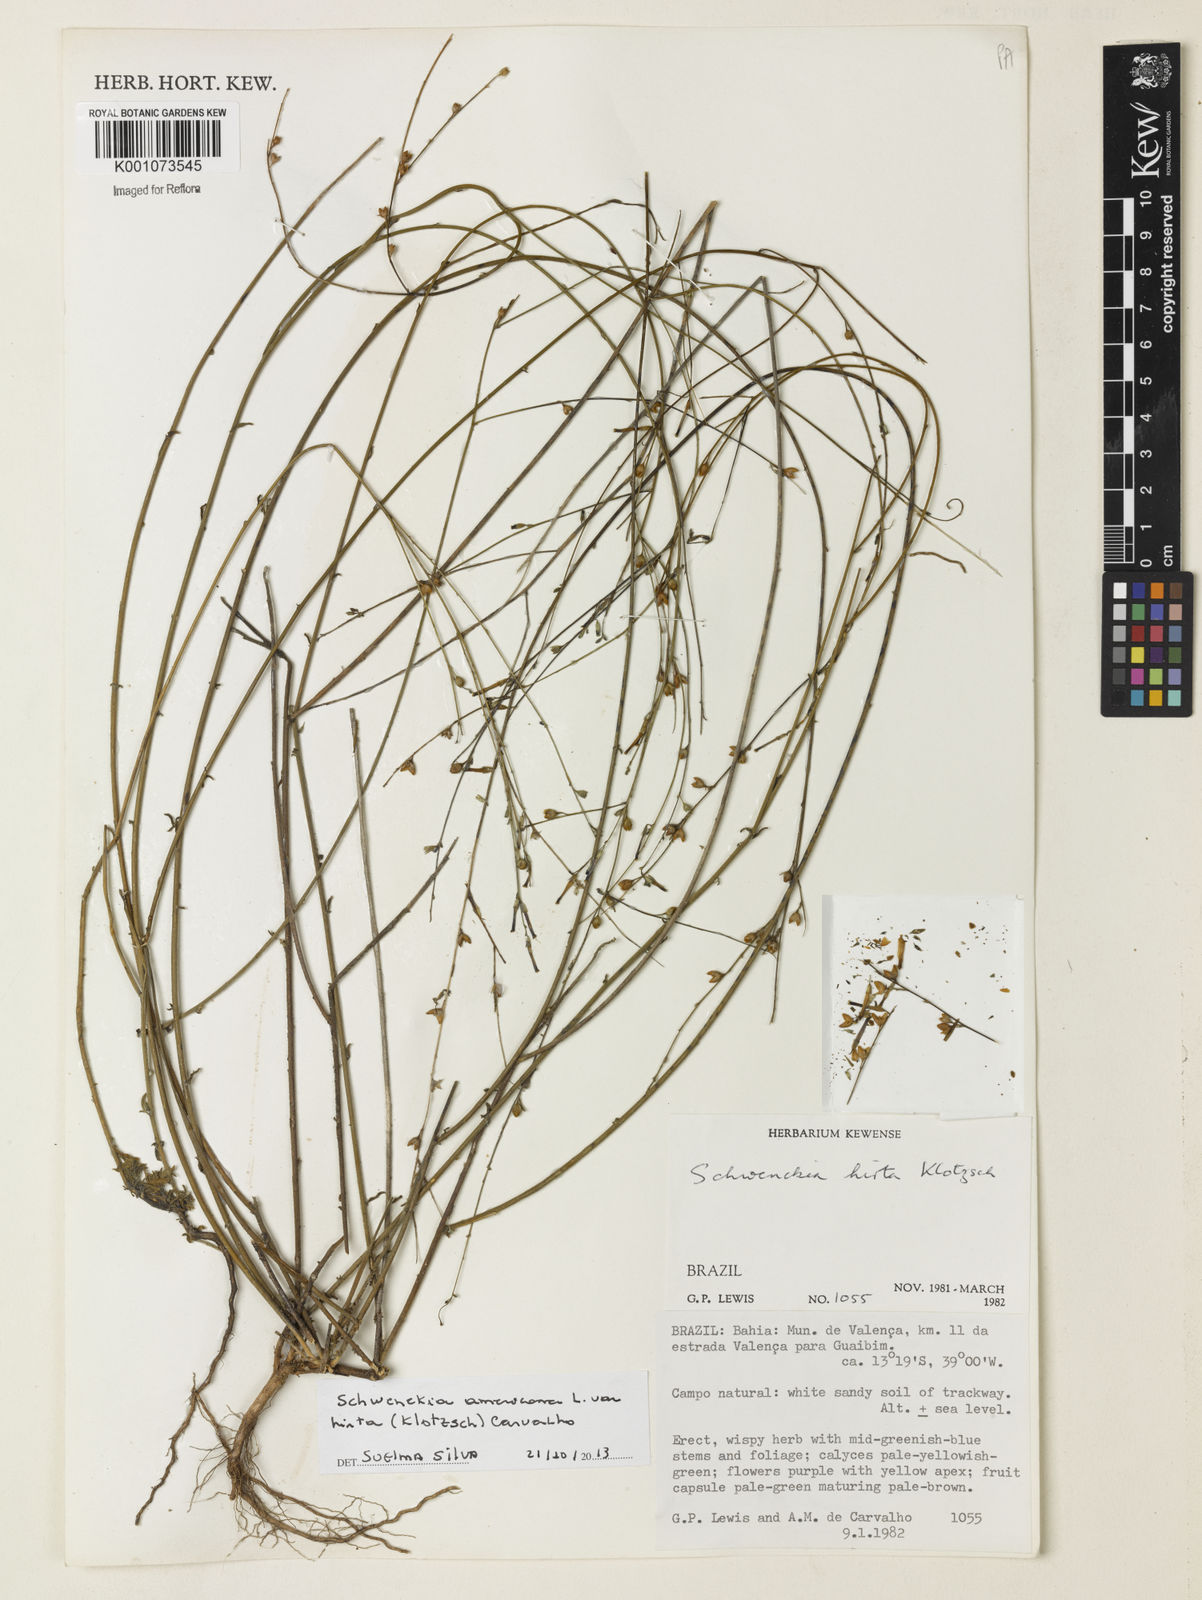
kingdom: Plantae
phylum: Tracheophyta
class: Magnoliopsida
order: Solanales
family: Solanaceae
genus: Schwenckia
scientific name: Schwenckia americana
